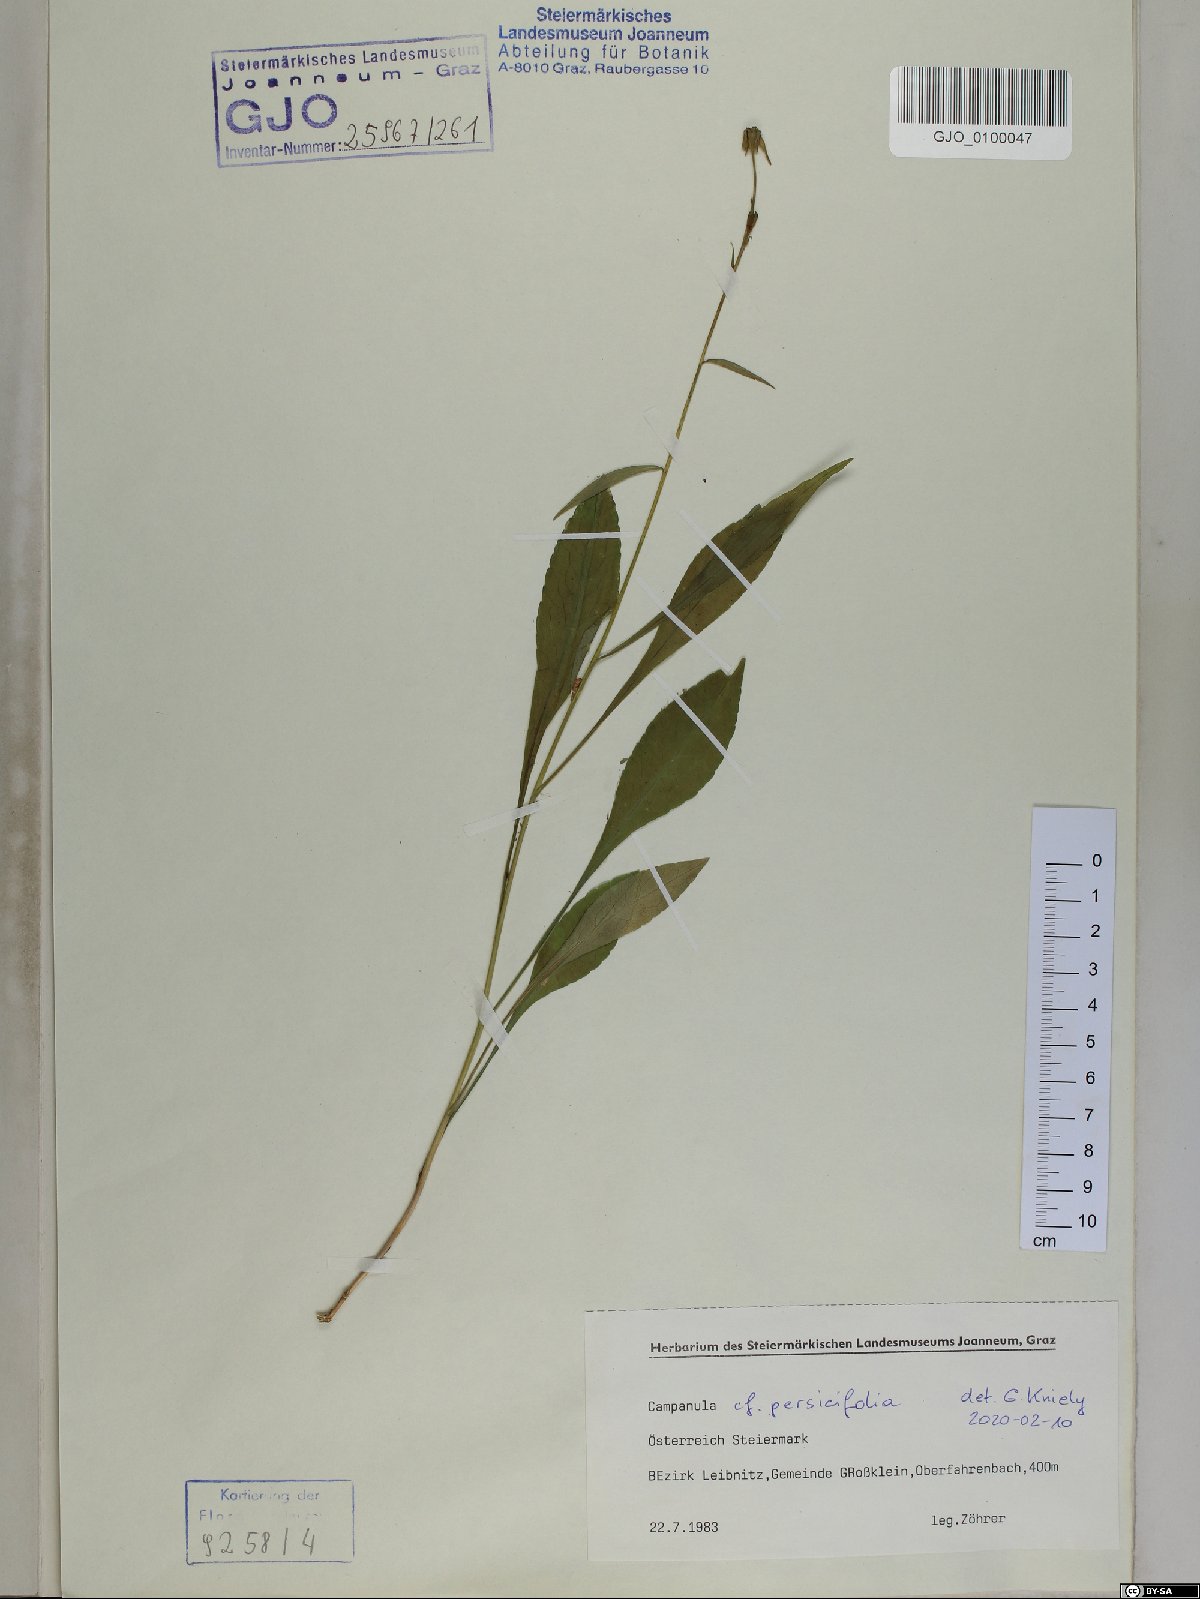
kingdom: Plantae
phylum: Tracheophyta
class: Magnoliopsida
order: Asterales
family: Campanulaceae
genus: Campanula
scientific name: Campanula persicifolia
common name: Peach-leaved bellflower
